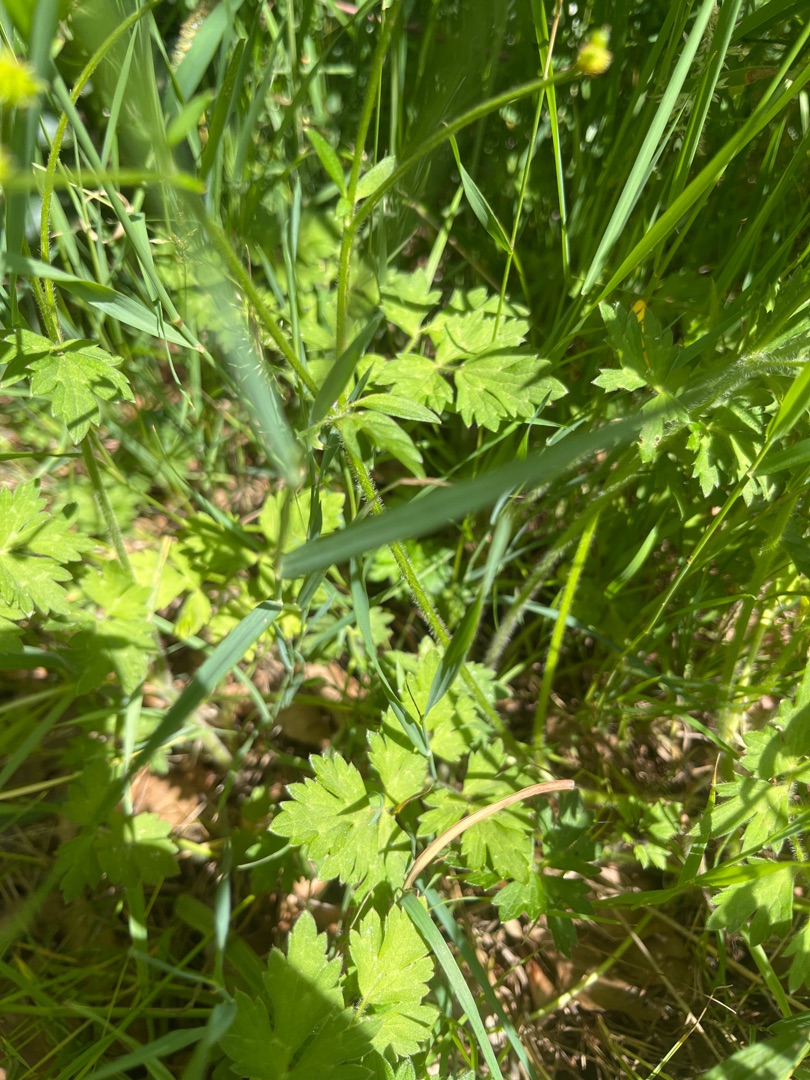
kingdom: Plantae
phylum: Tracheophyta
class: Magnoliopsida
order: Ranunculales
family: Ranunculaceae
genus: Ranunculus
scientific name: Ranunculus repens
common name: Lav ranunkel
